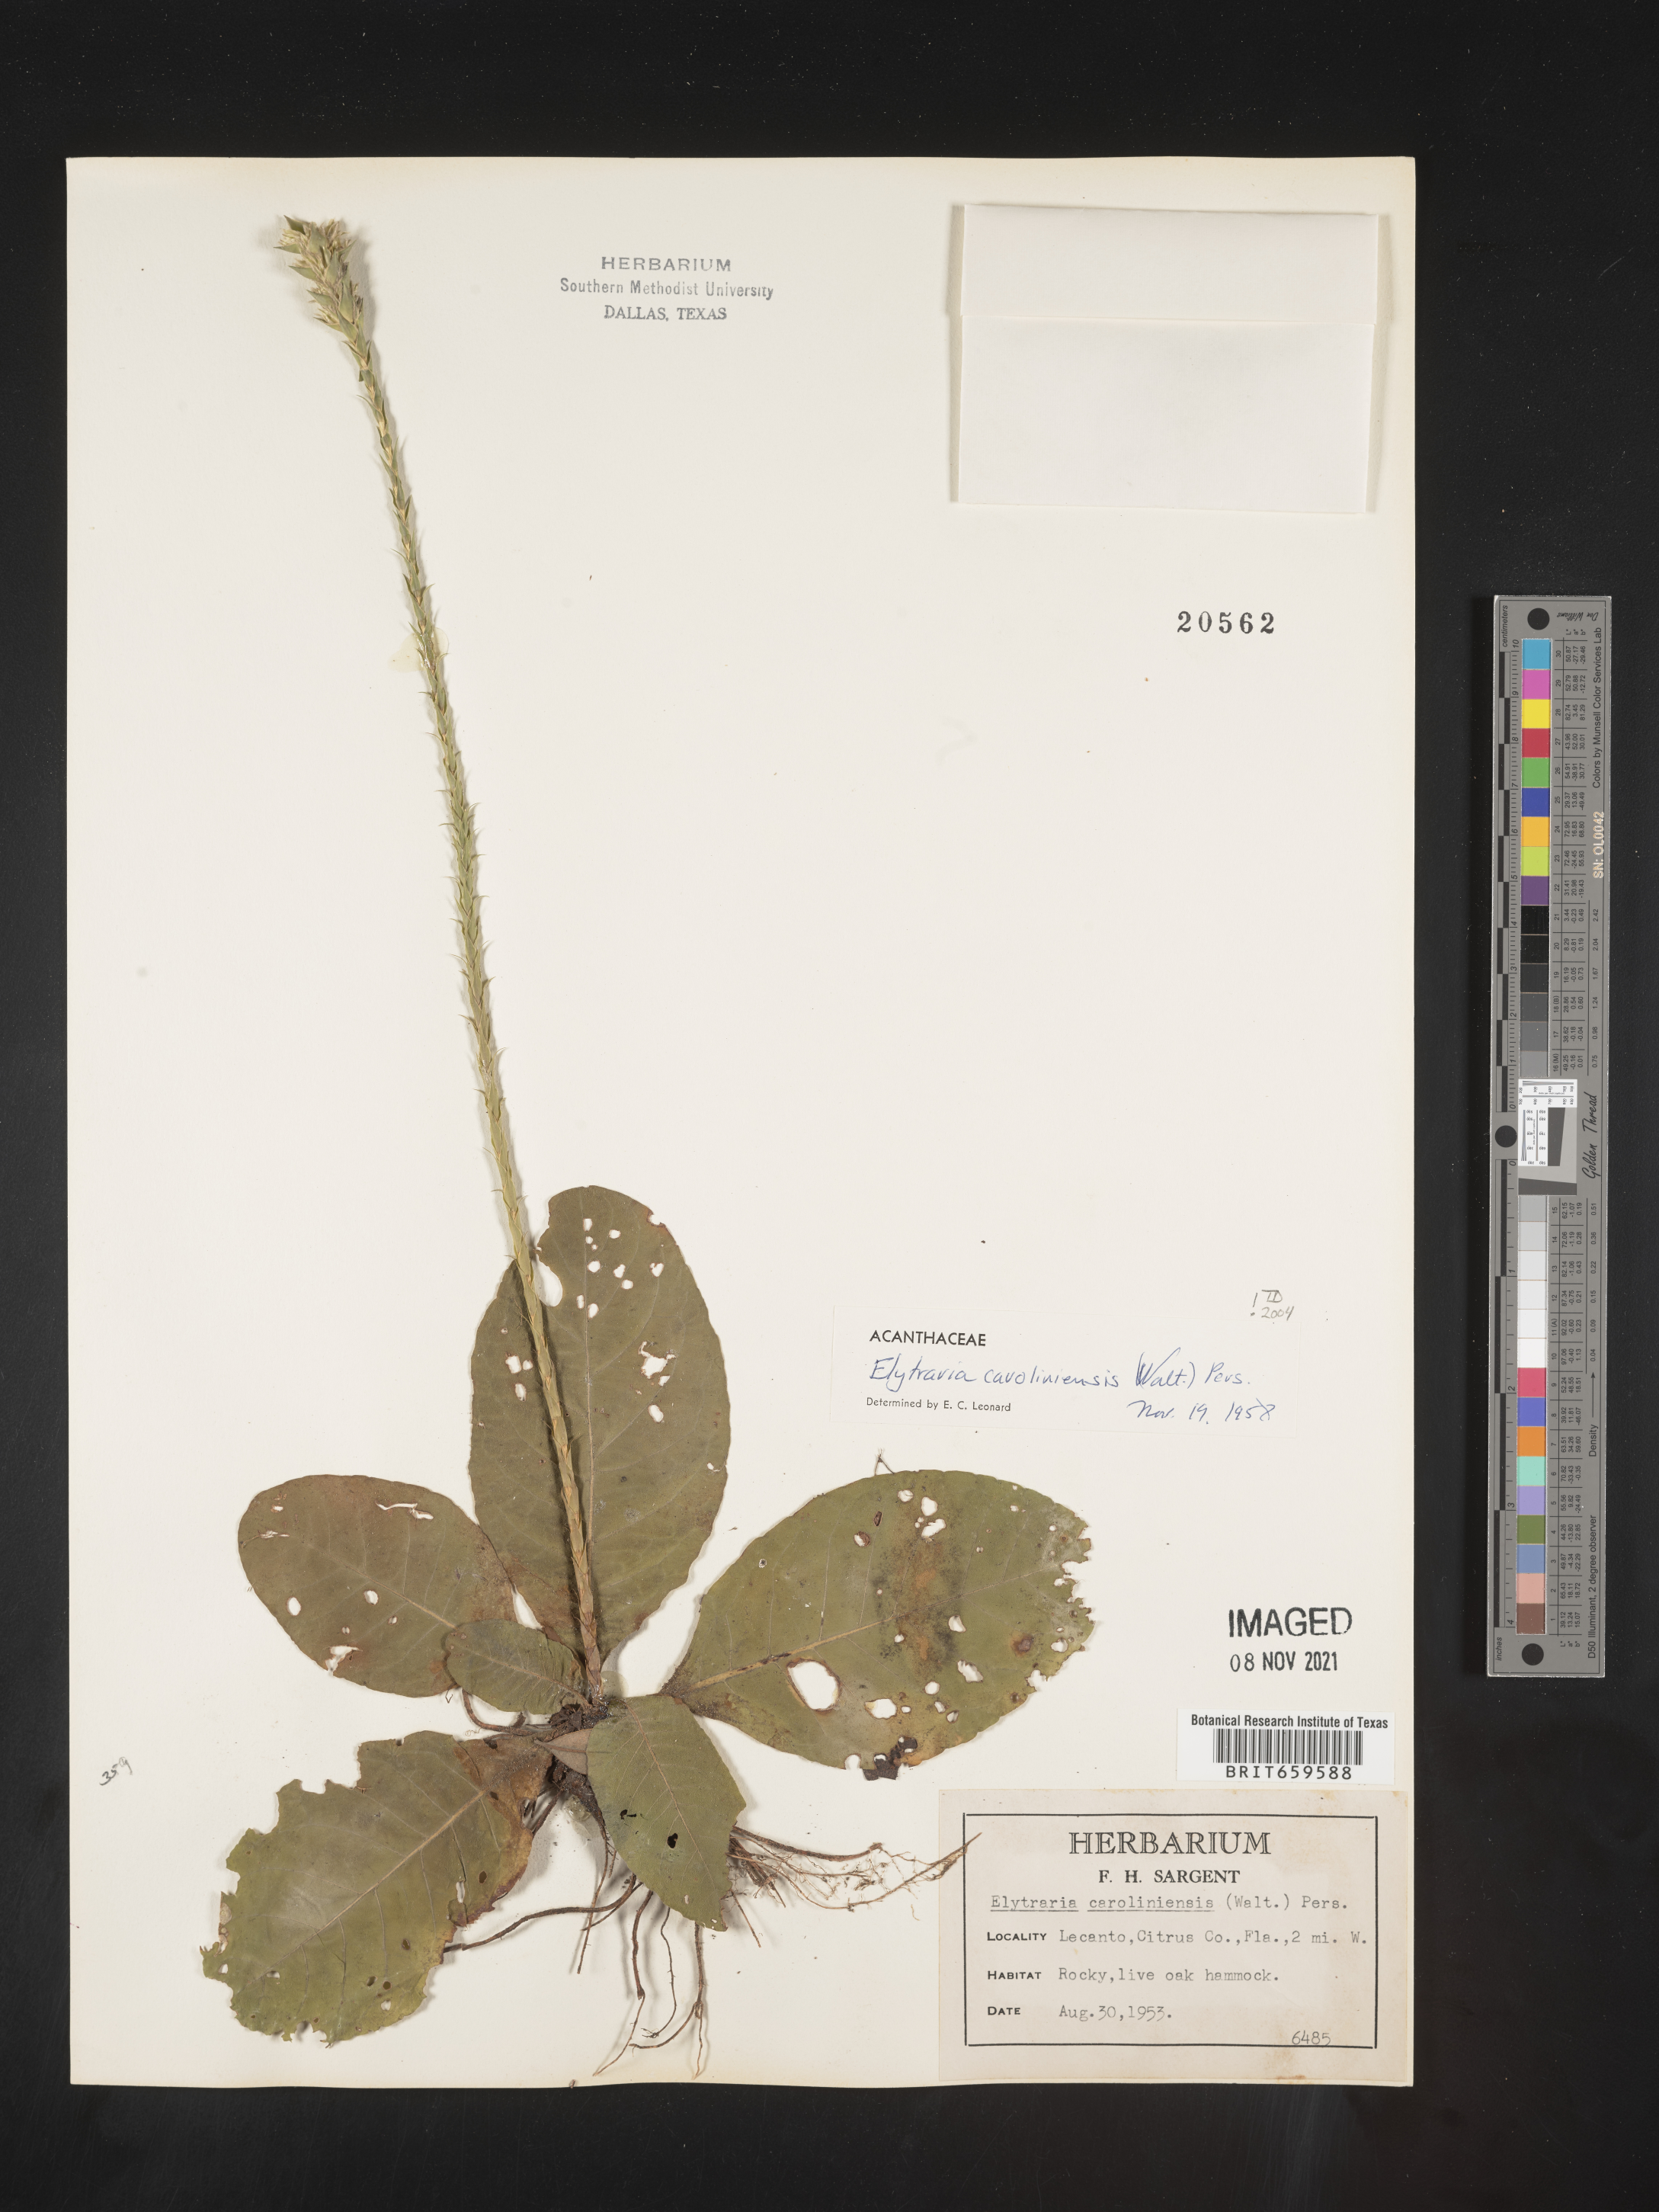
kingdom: Plantae
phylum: Tracheophyta
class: Magnoliopsida
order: Lamiales
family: Acanthaceae
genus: Elytraria
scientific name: Elytraria imbricata
